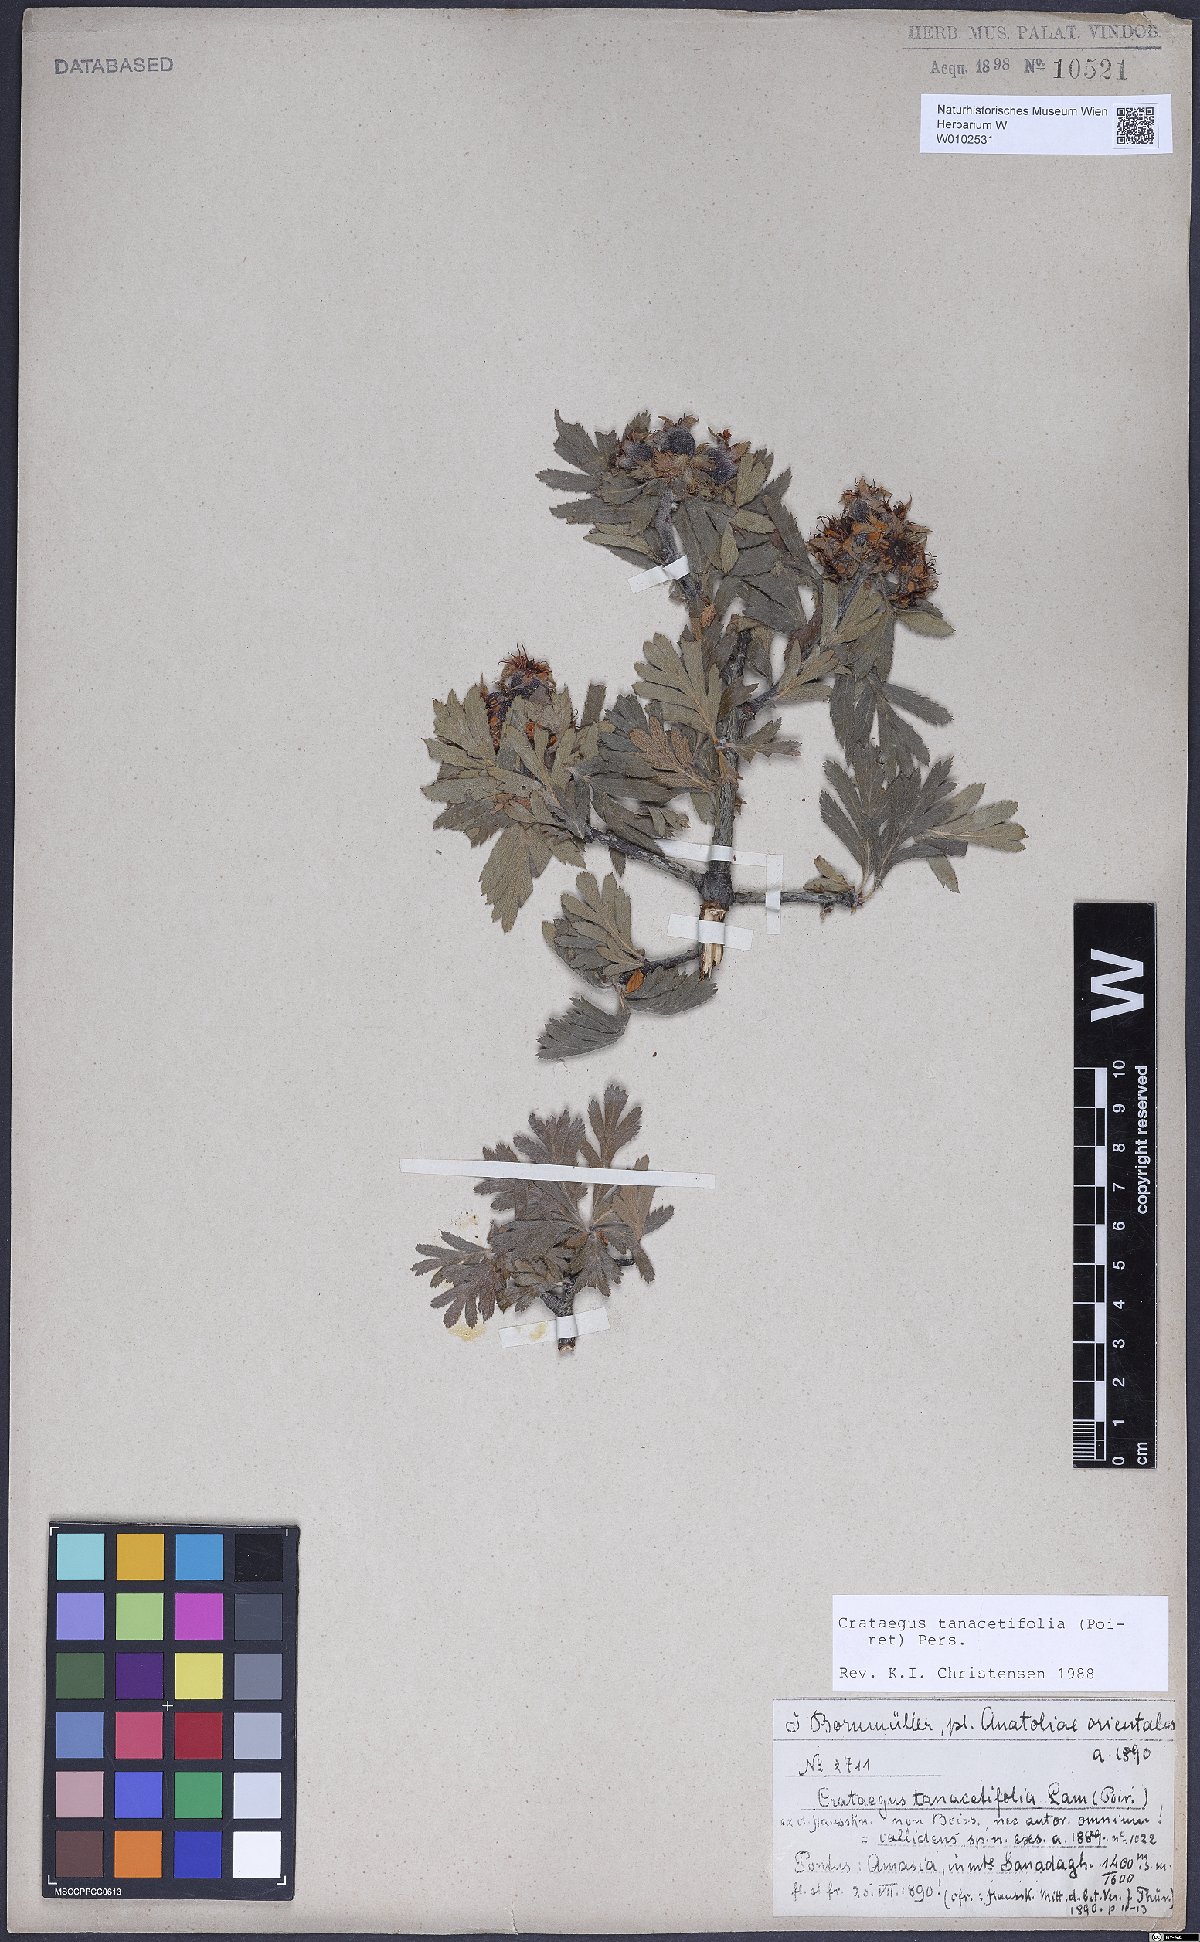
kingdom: Plantae
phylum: Tracheophyta
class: Magnoliopsida
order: Rosales
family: Rosaceae
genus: Crataegus
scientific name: Crataegus tanacetifolia
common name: Tansy-leaved thorn
